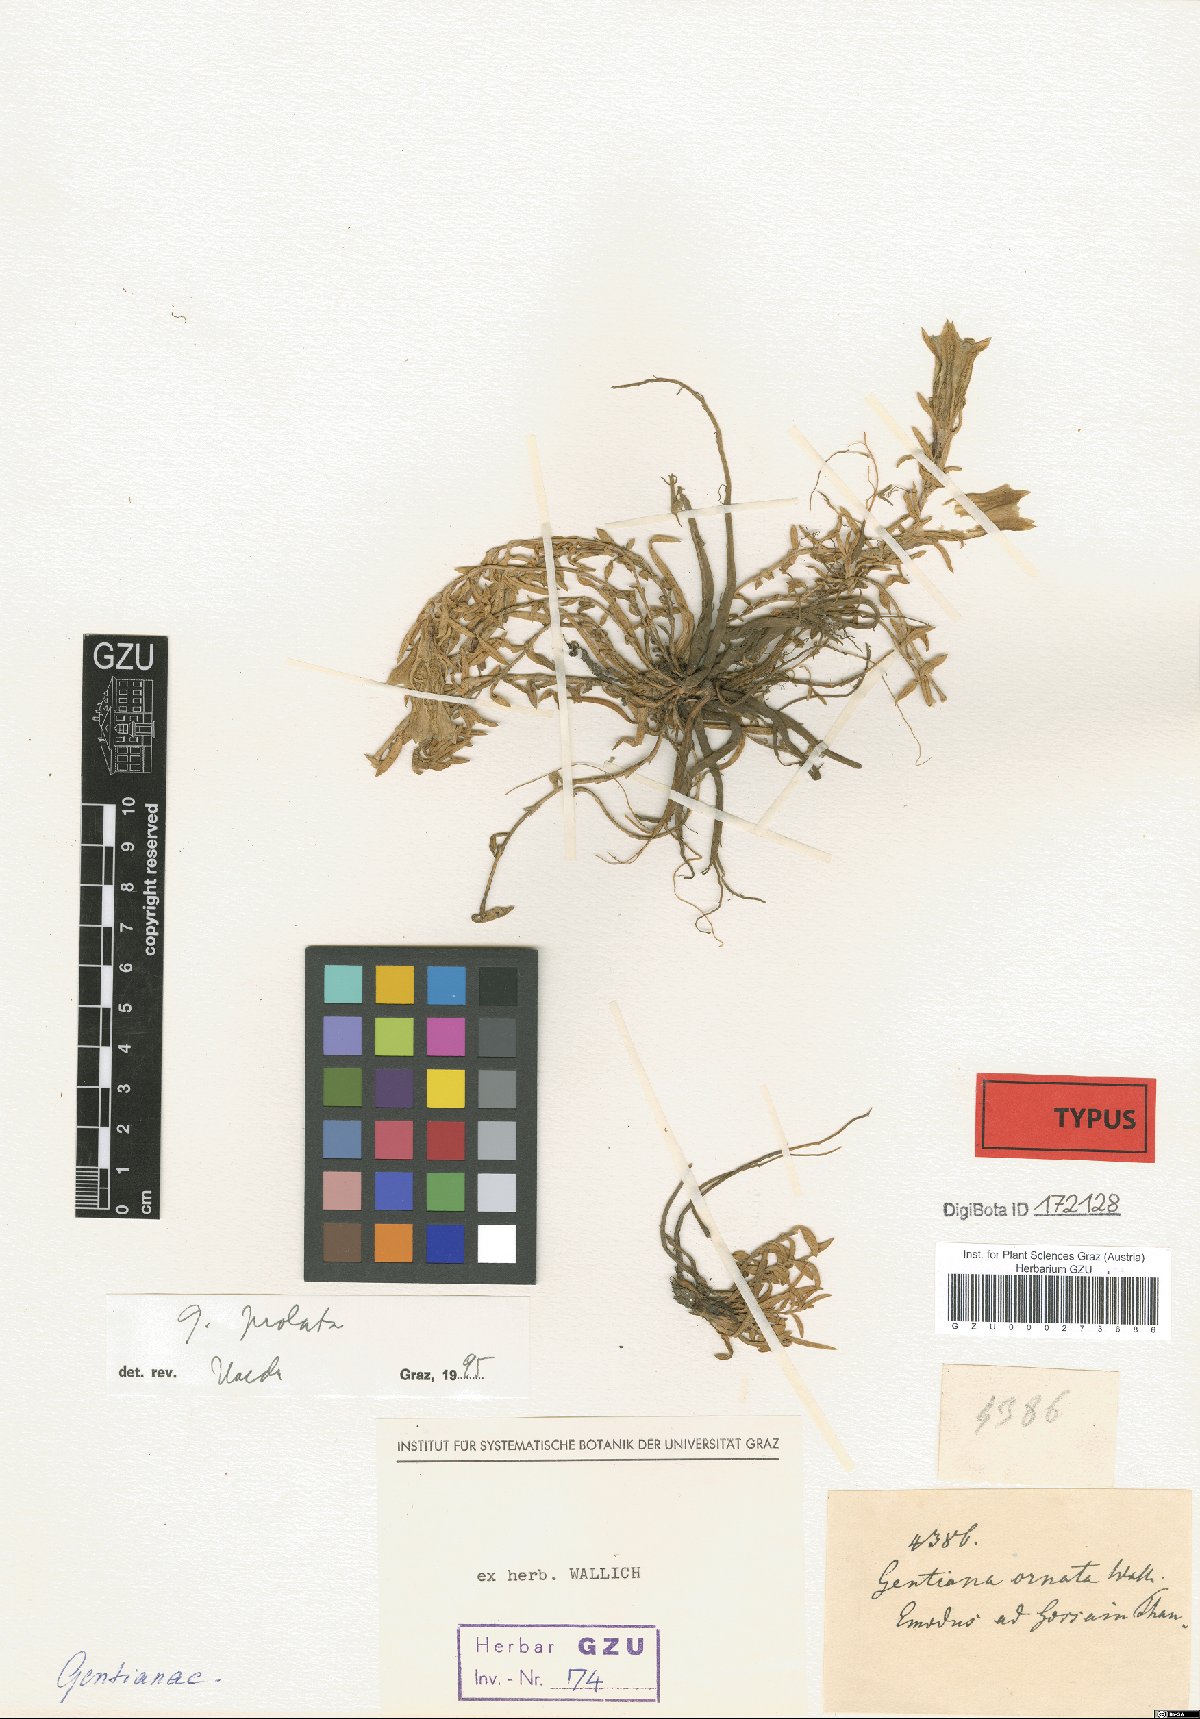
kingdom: Plantae
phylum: Tracheophyta
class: Magnoliopsida
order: Gentianales
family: Gentianaceae
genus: Gentiana
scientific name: Gentiana ornata
